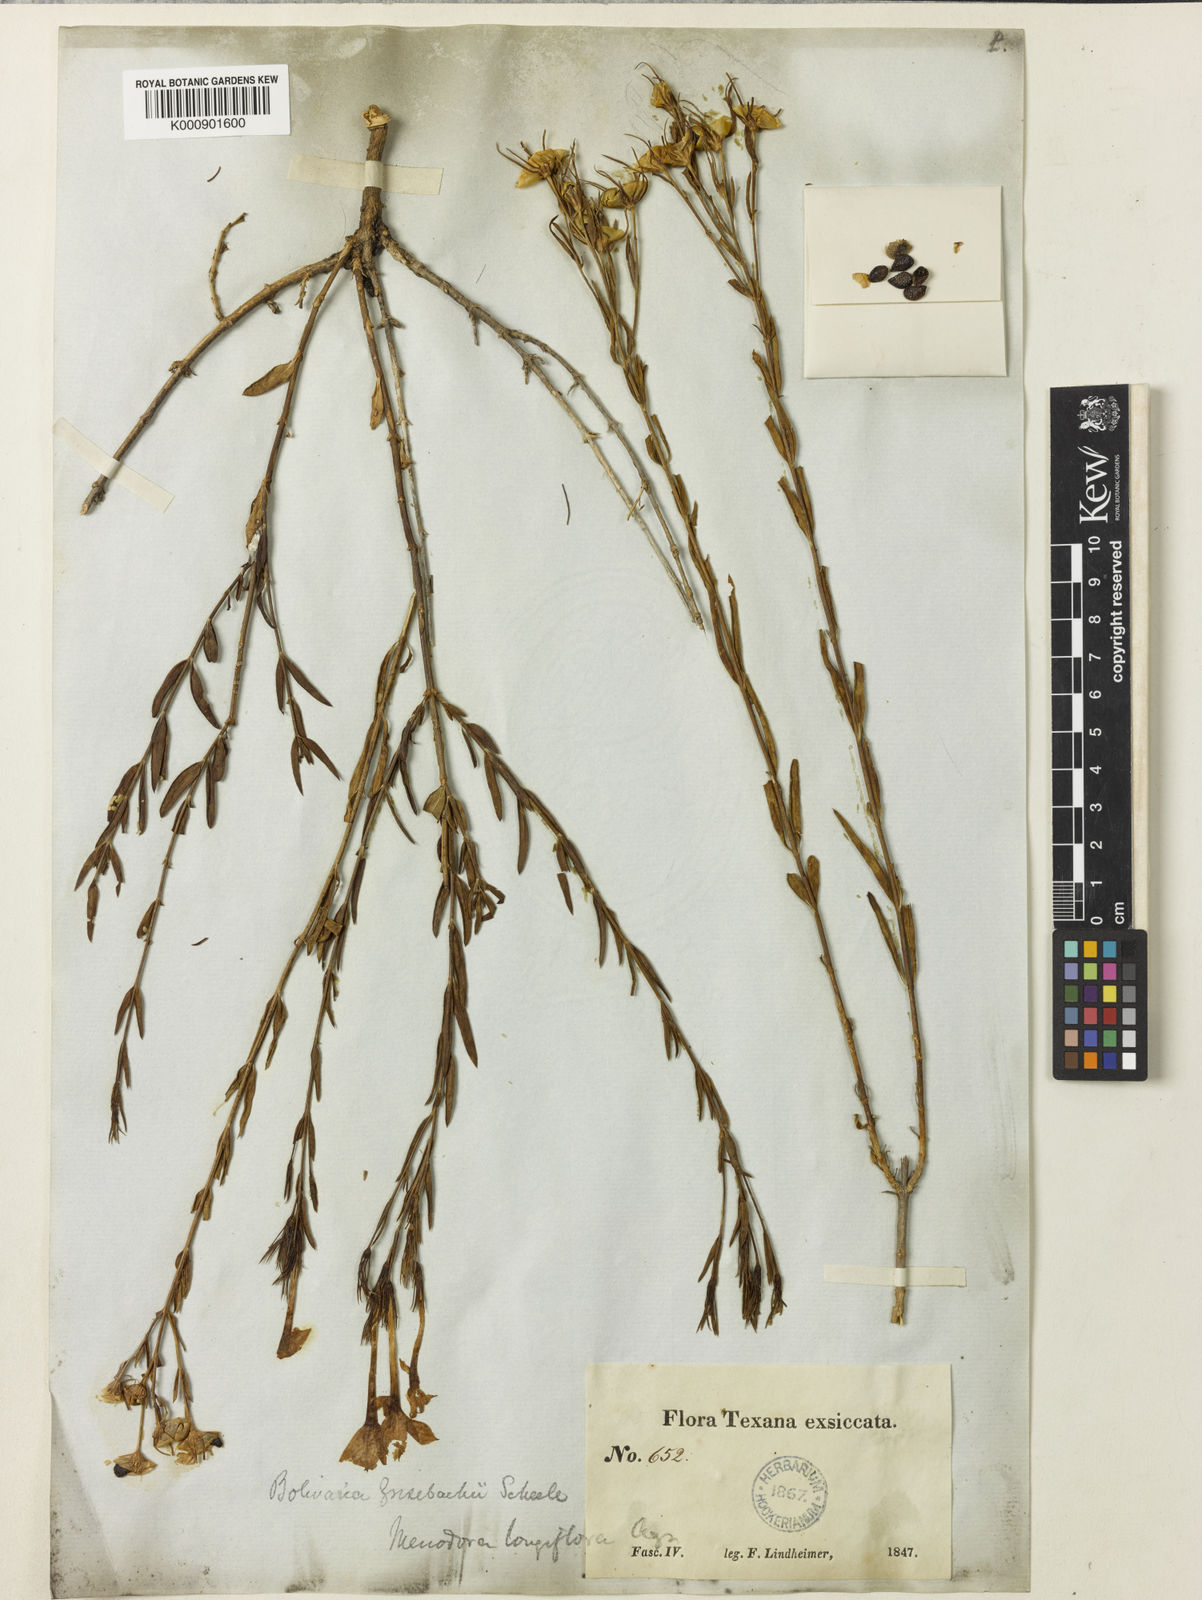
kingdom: Plantae
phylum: Tracheophyta
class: Magnoliopsida
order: Lamiales
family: Oleaceae
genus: Menodora
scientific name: Menodora longiflora
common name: Showy menodora
